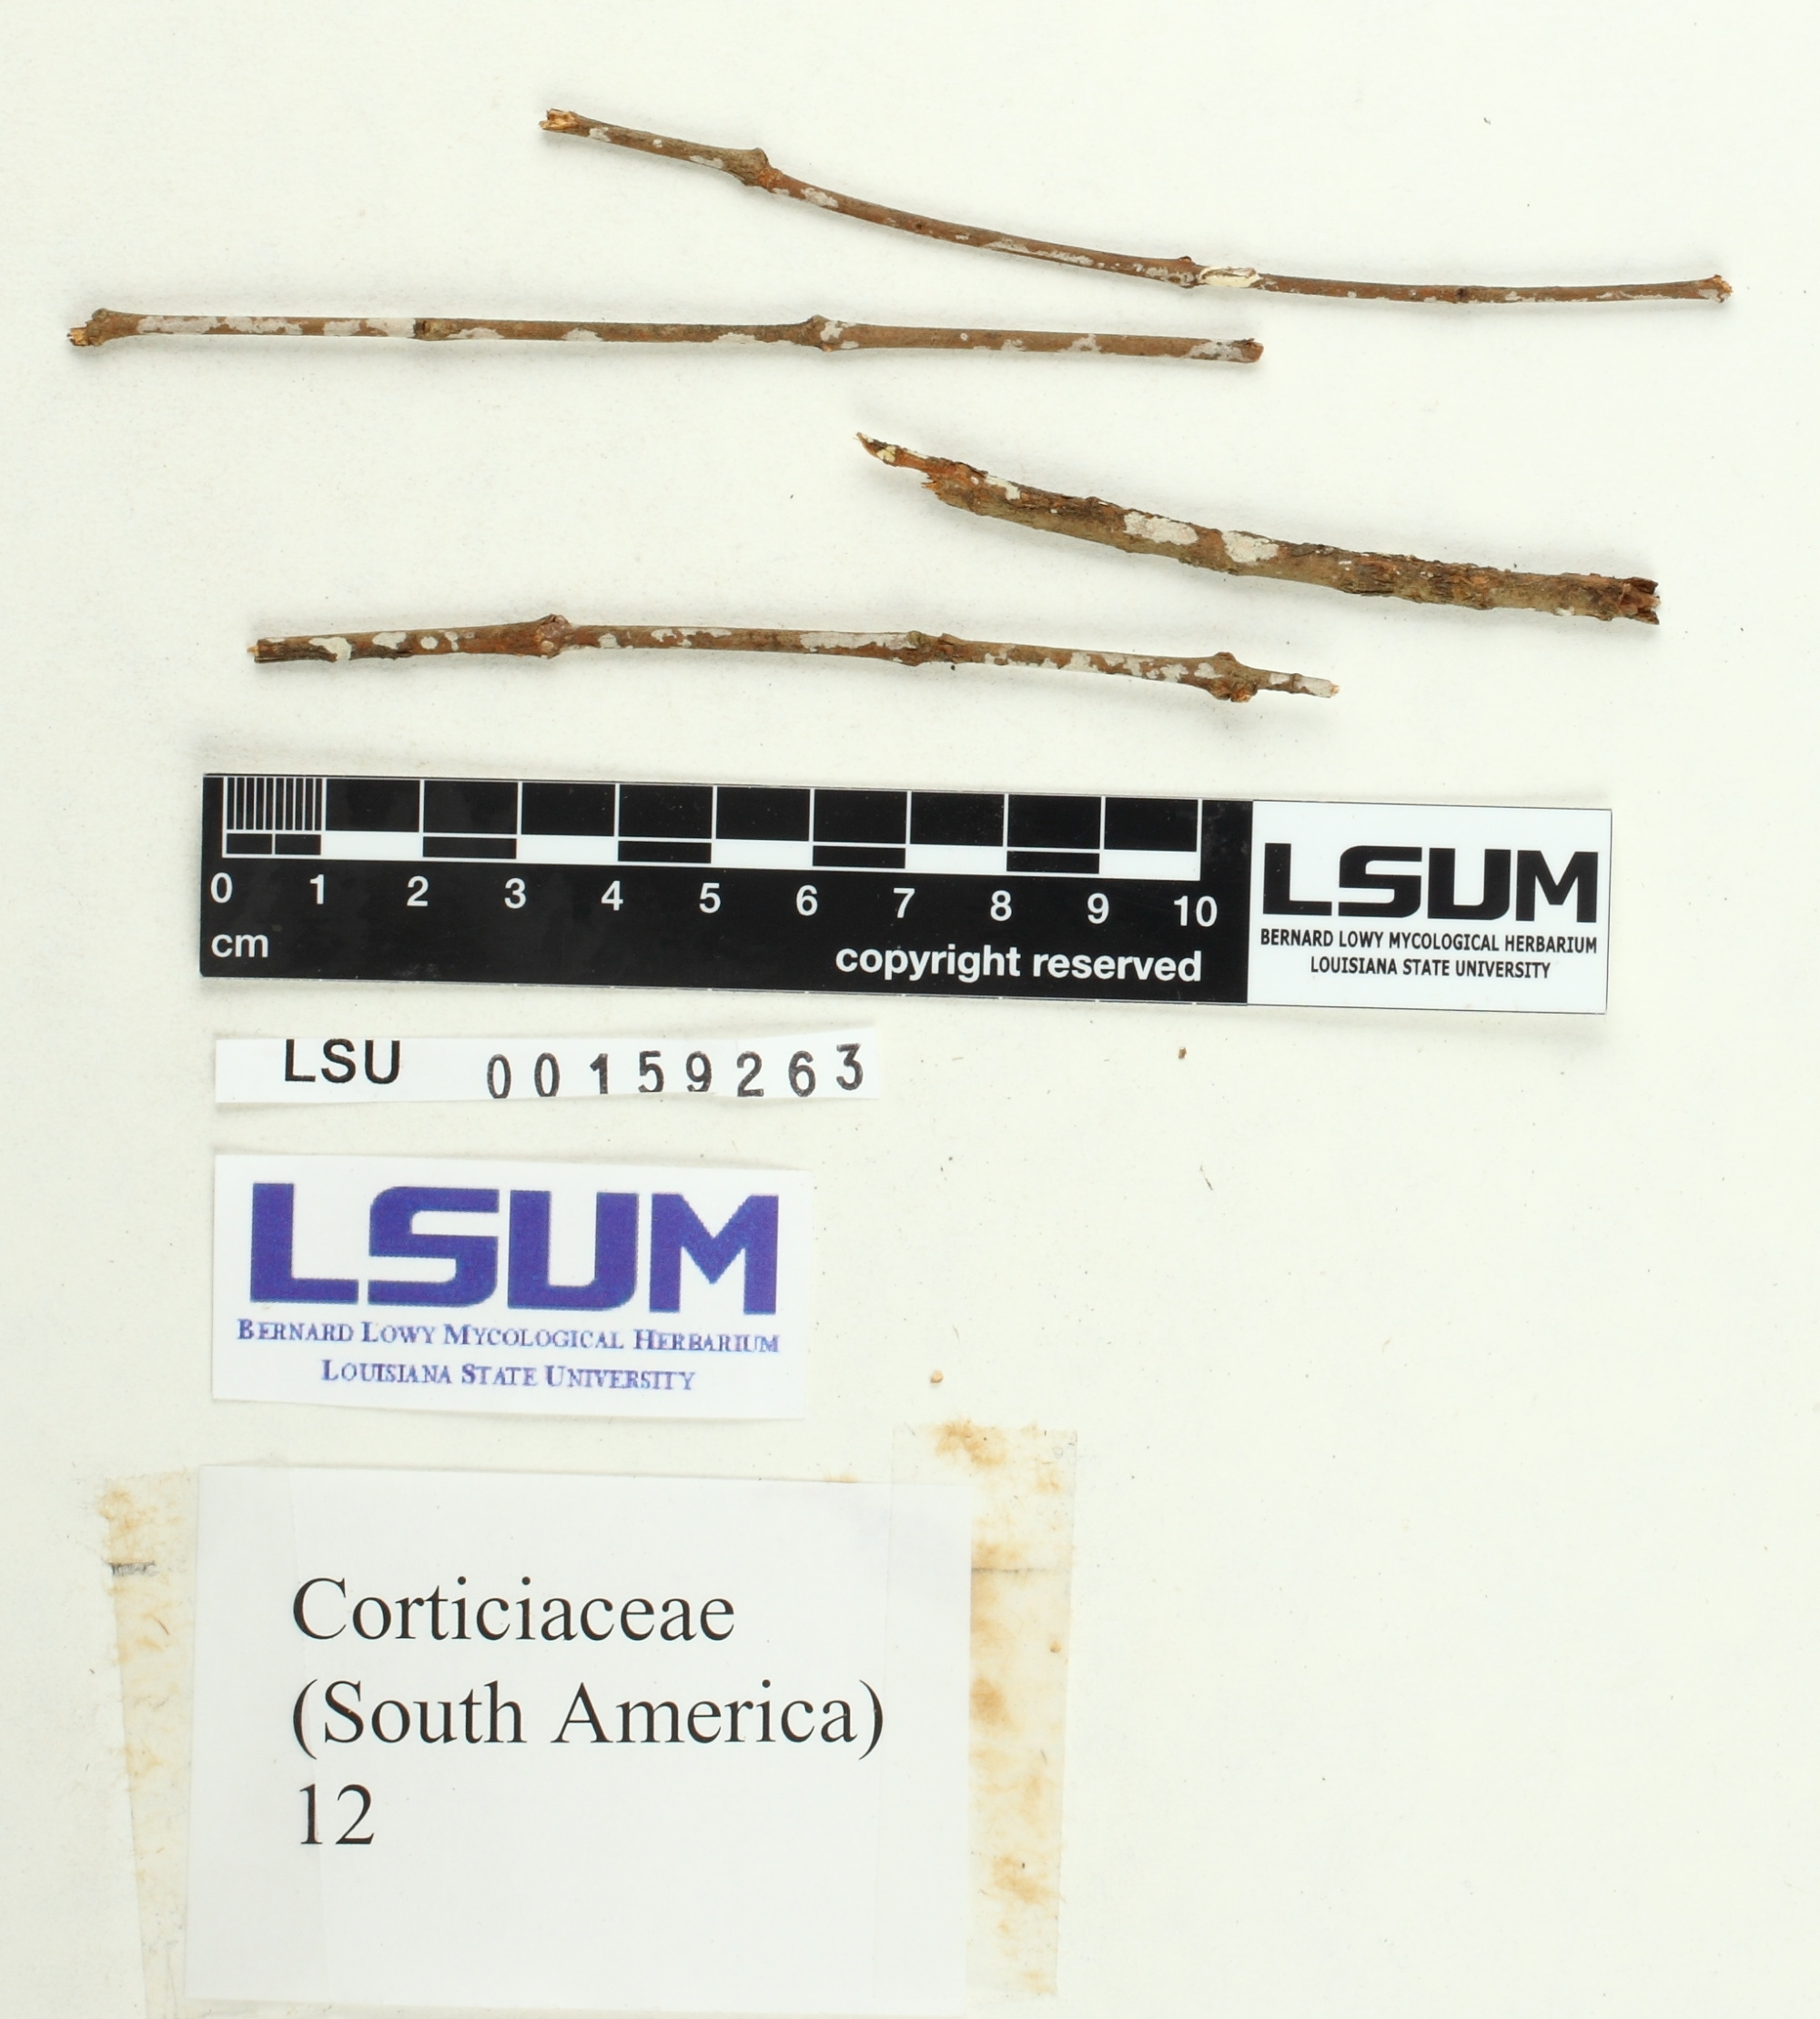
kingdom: Fungi
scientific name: Fungi
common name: Fungi
